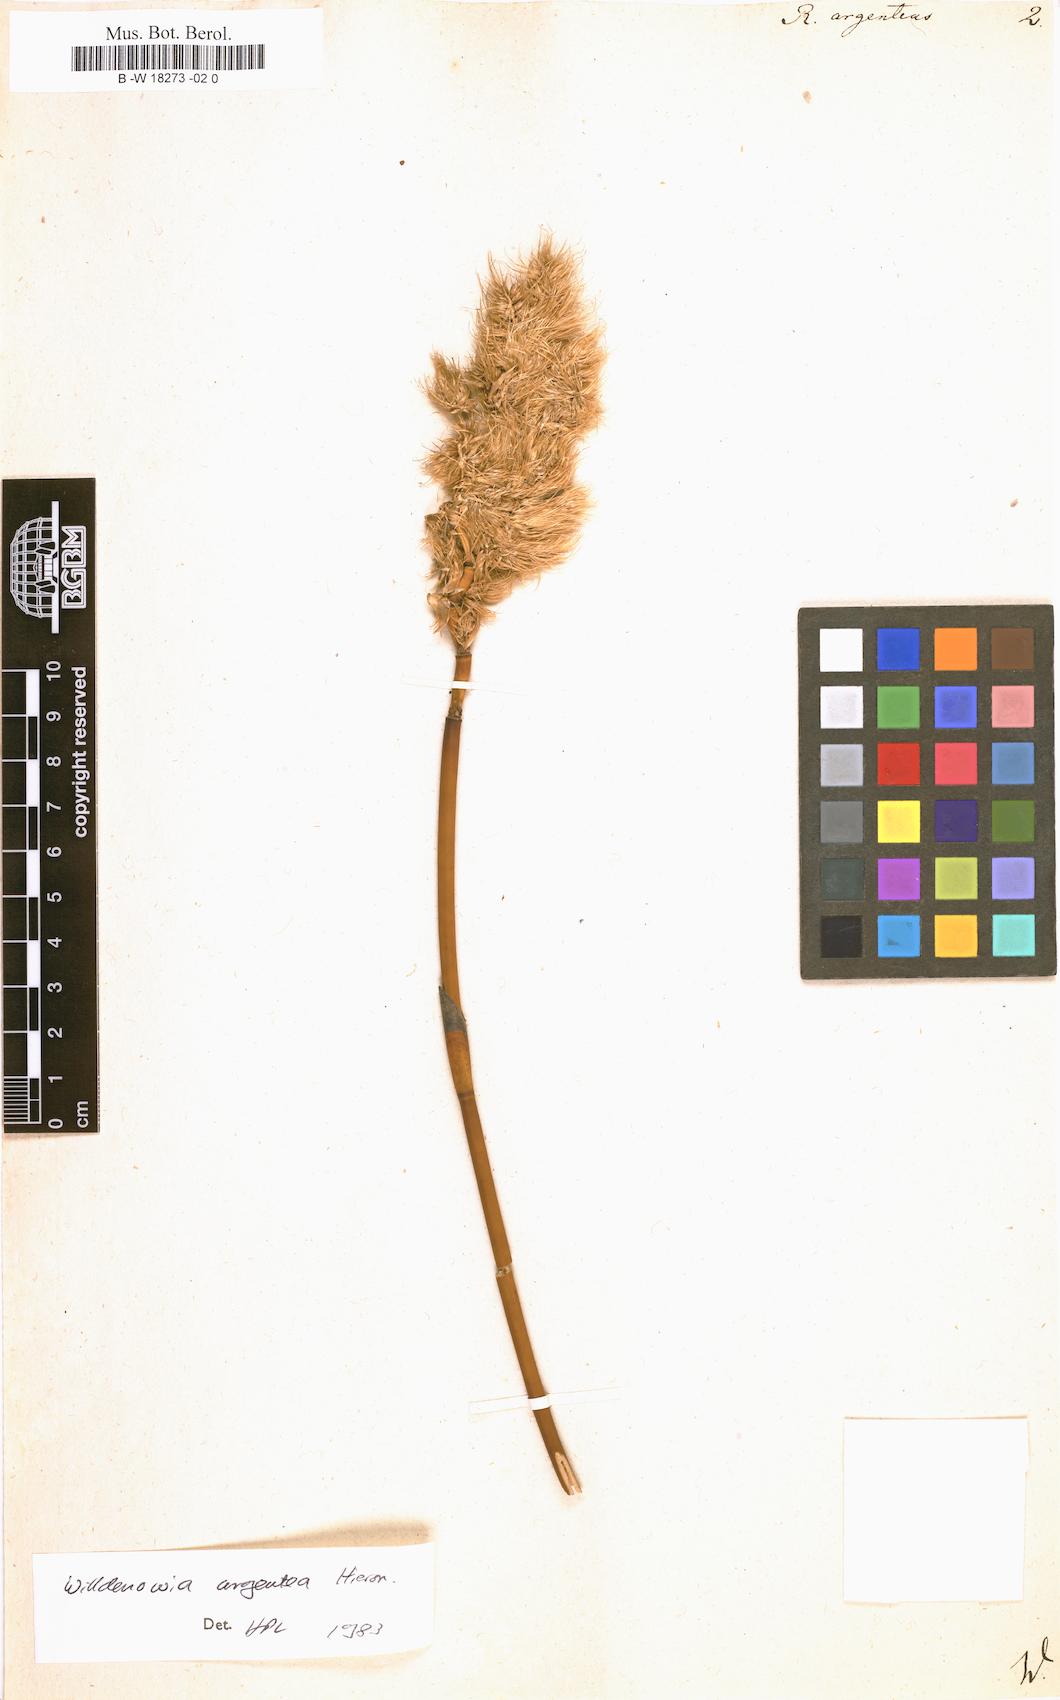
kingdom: Plantae
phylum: Tracheophyta
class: Liliopsida
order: Poales
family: Restionaceae
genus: Hypodiscus
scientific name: Hypodiscus argenteus
